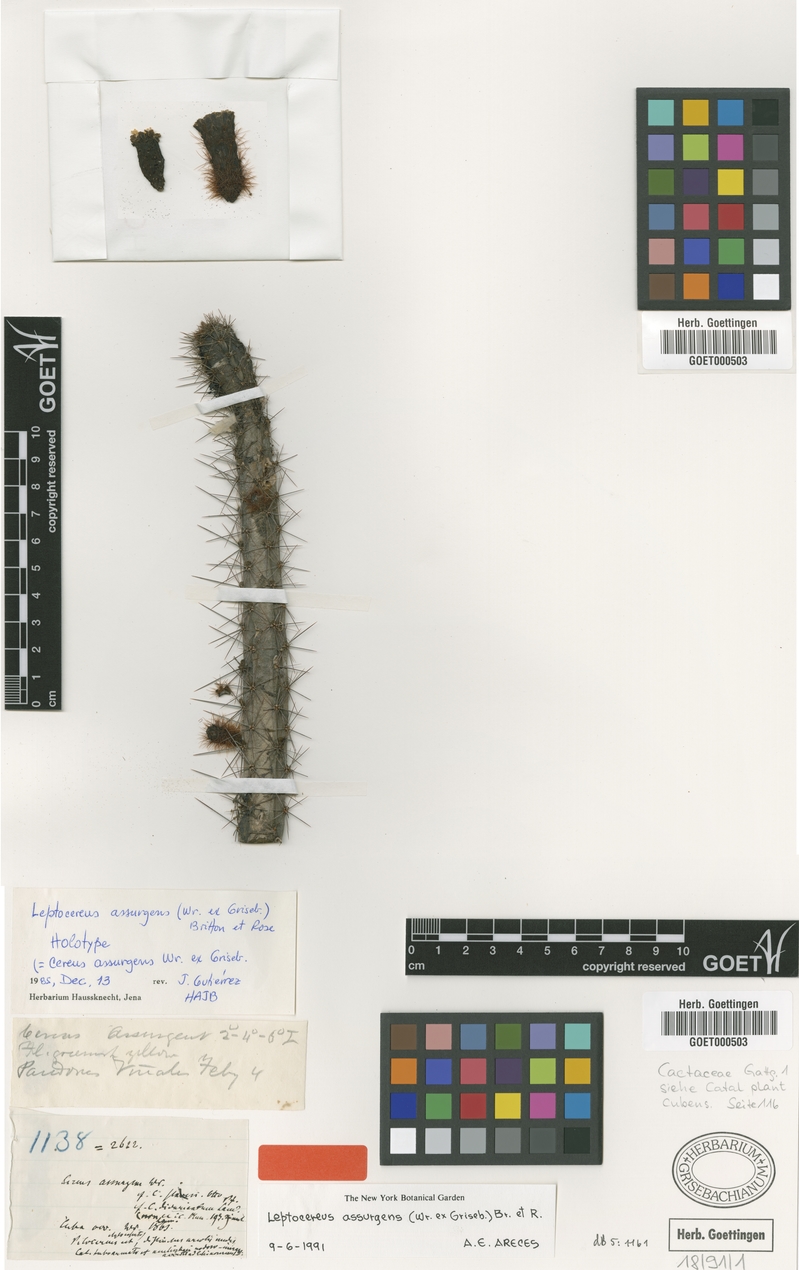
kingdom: Plantae
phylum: Tracheophyta
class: Magnoliopsida
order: Caryophyllales
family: Cactaceae
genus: Leptocereus
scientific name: Leptocereus assurgens
